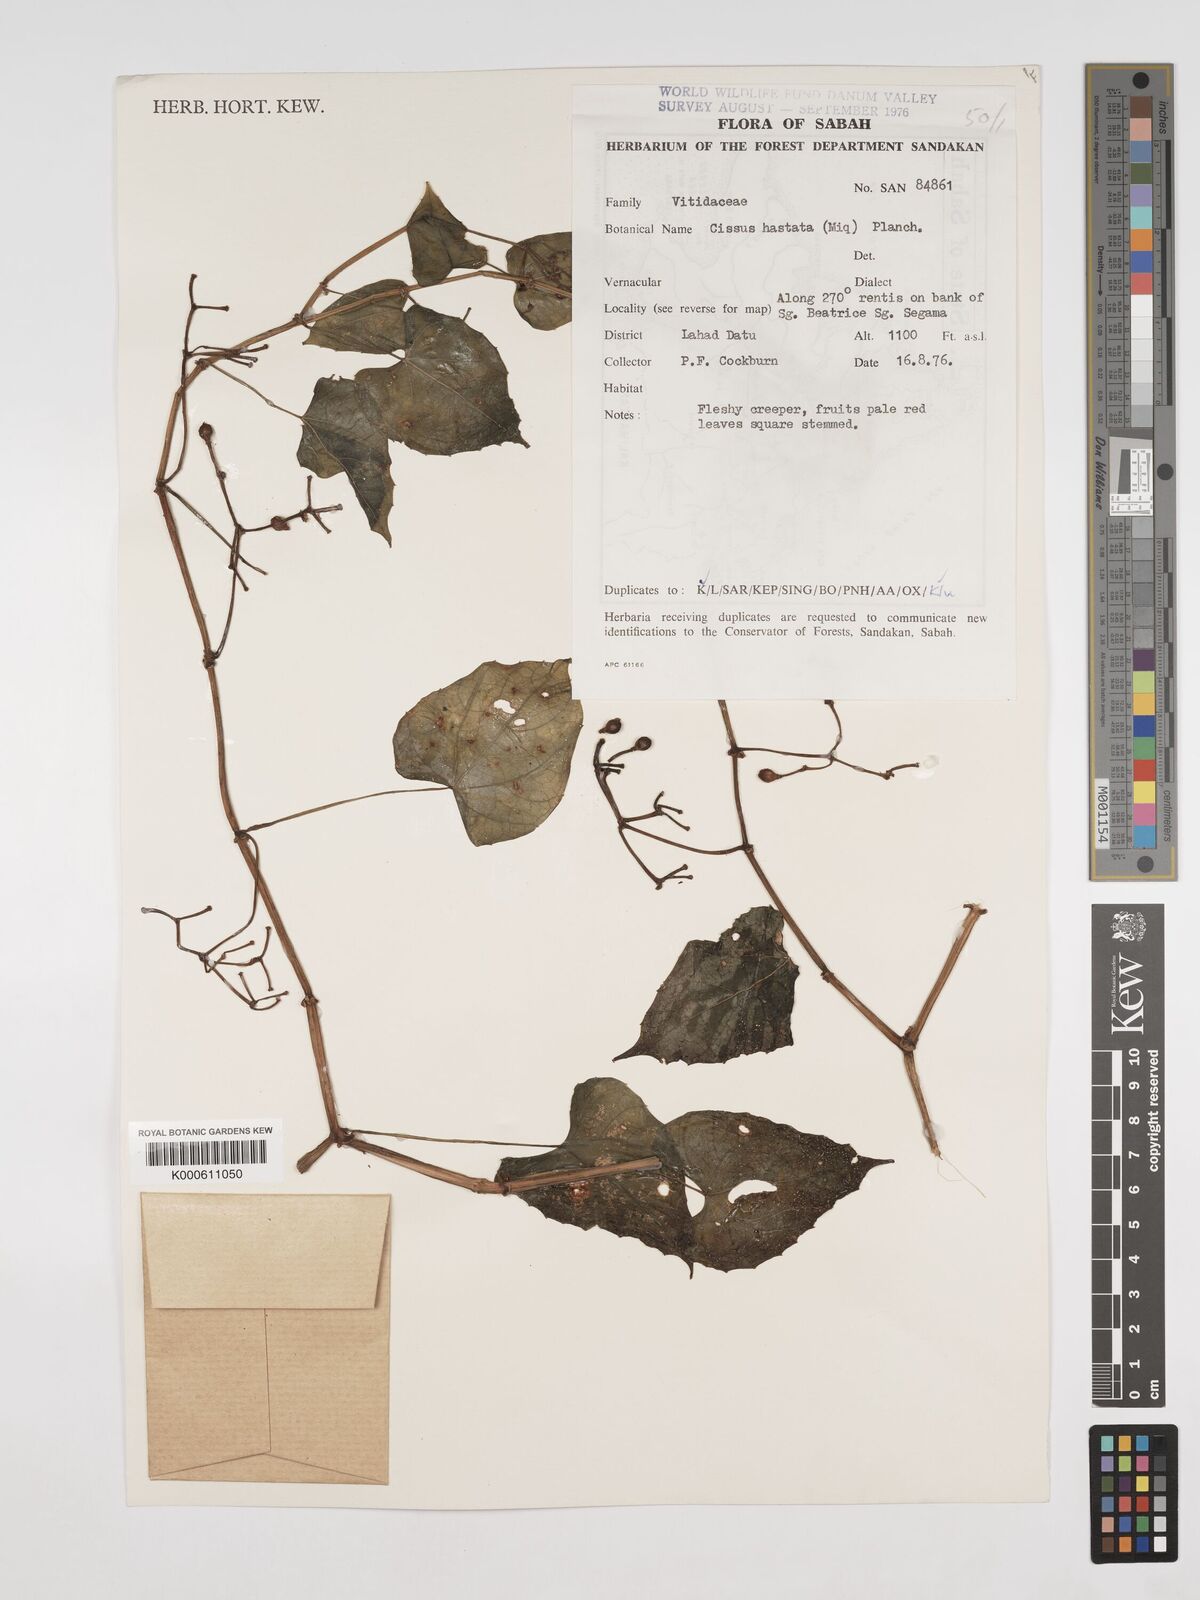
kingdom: Plantae
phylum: Tracheophyta
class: Magnoliopsida
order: Vitales
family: Vitaceae
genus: Cissus
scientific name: Cissus
